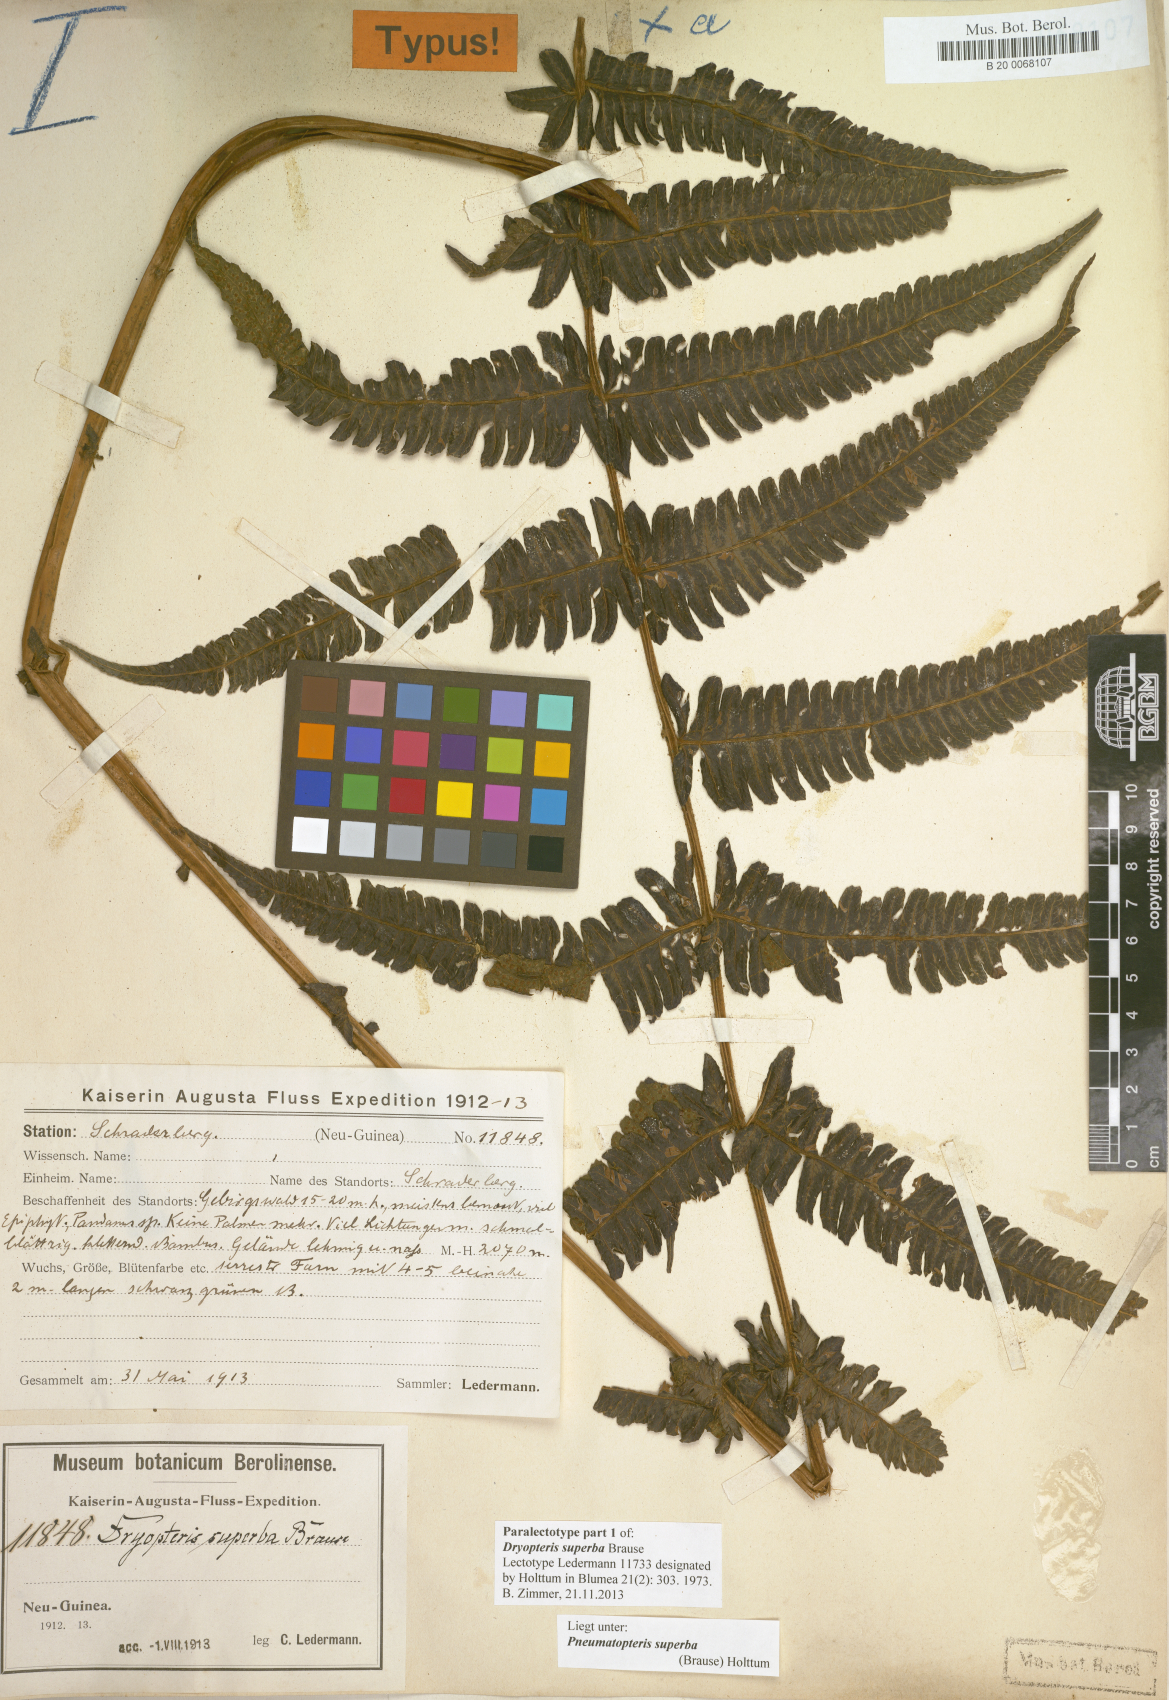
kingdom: Plantae
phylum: Tracheophyta
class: Polypodiopsida
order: Polypodiales
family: Thelypteridaceae
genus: Sphaerostephanos
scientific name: Sphaerostephanos superbus
